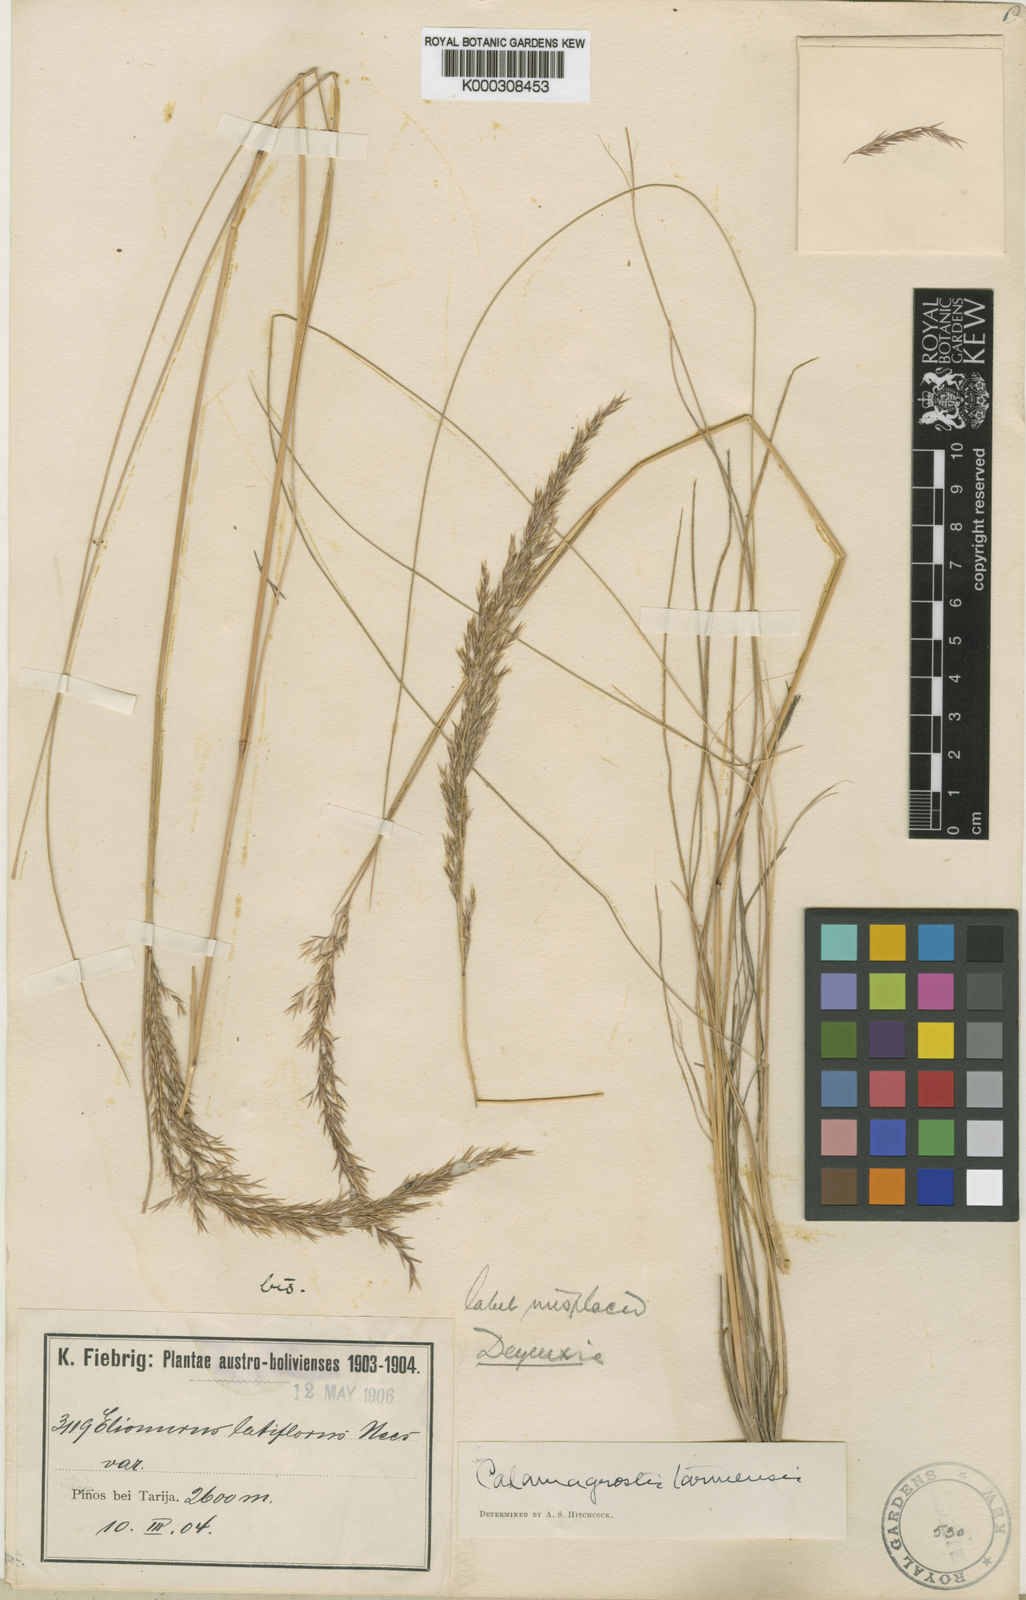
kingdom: Plantae
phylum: Tracheophyta
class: Liliopsida
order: Poales
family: Poaceae
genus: Cinnagrostis
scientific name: Cinnagrostis tarmensis
